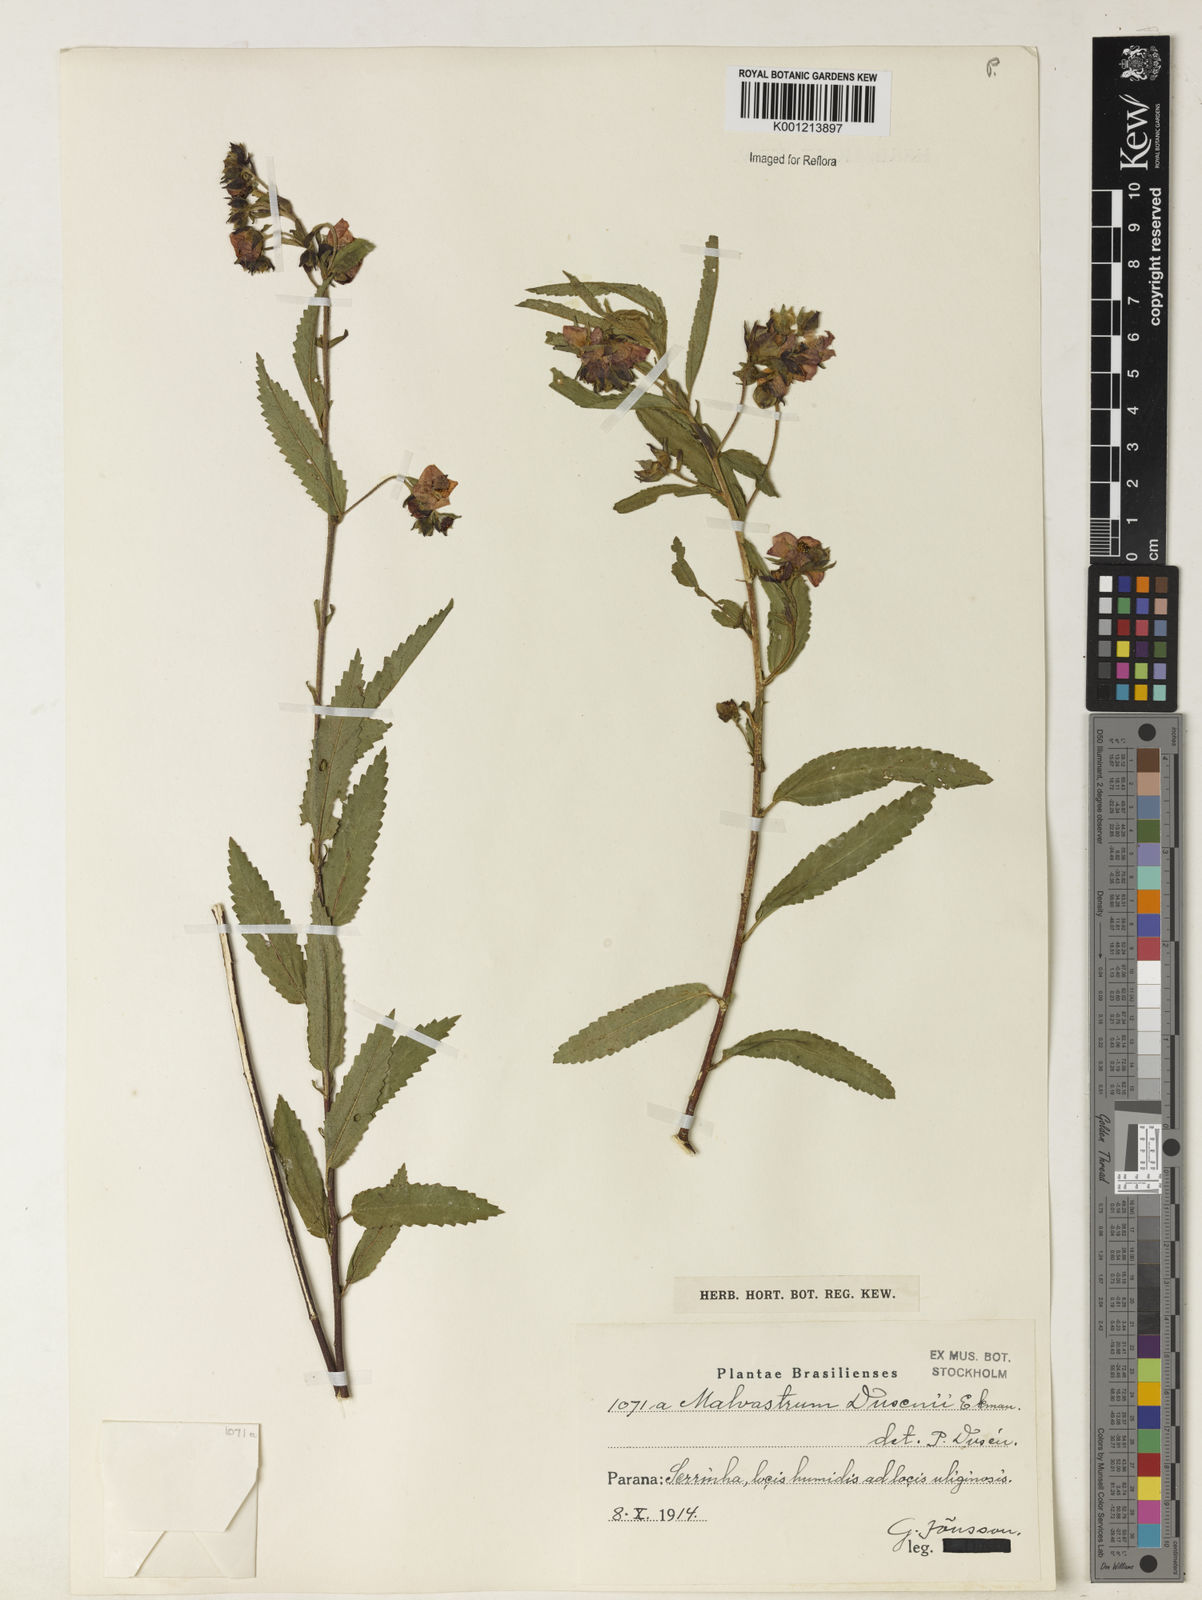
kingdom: Plantae
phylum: Tracheophyta
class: Magnoliopsida
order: Malvales
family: Malvaceae
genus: Monteiroa
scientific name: Monteiroa dusenii
